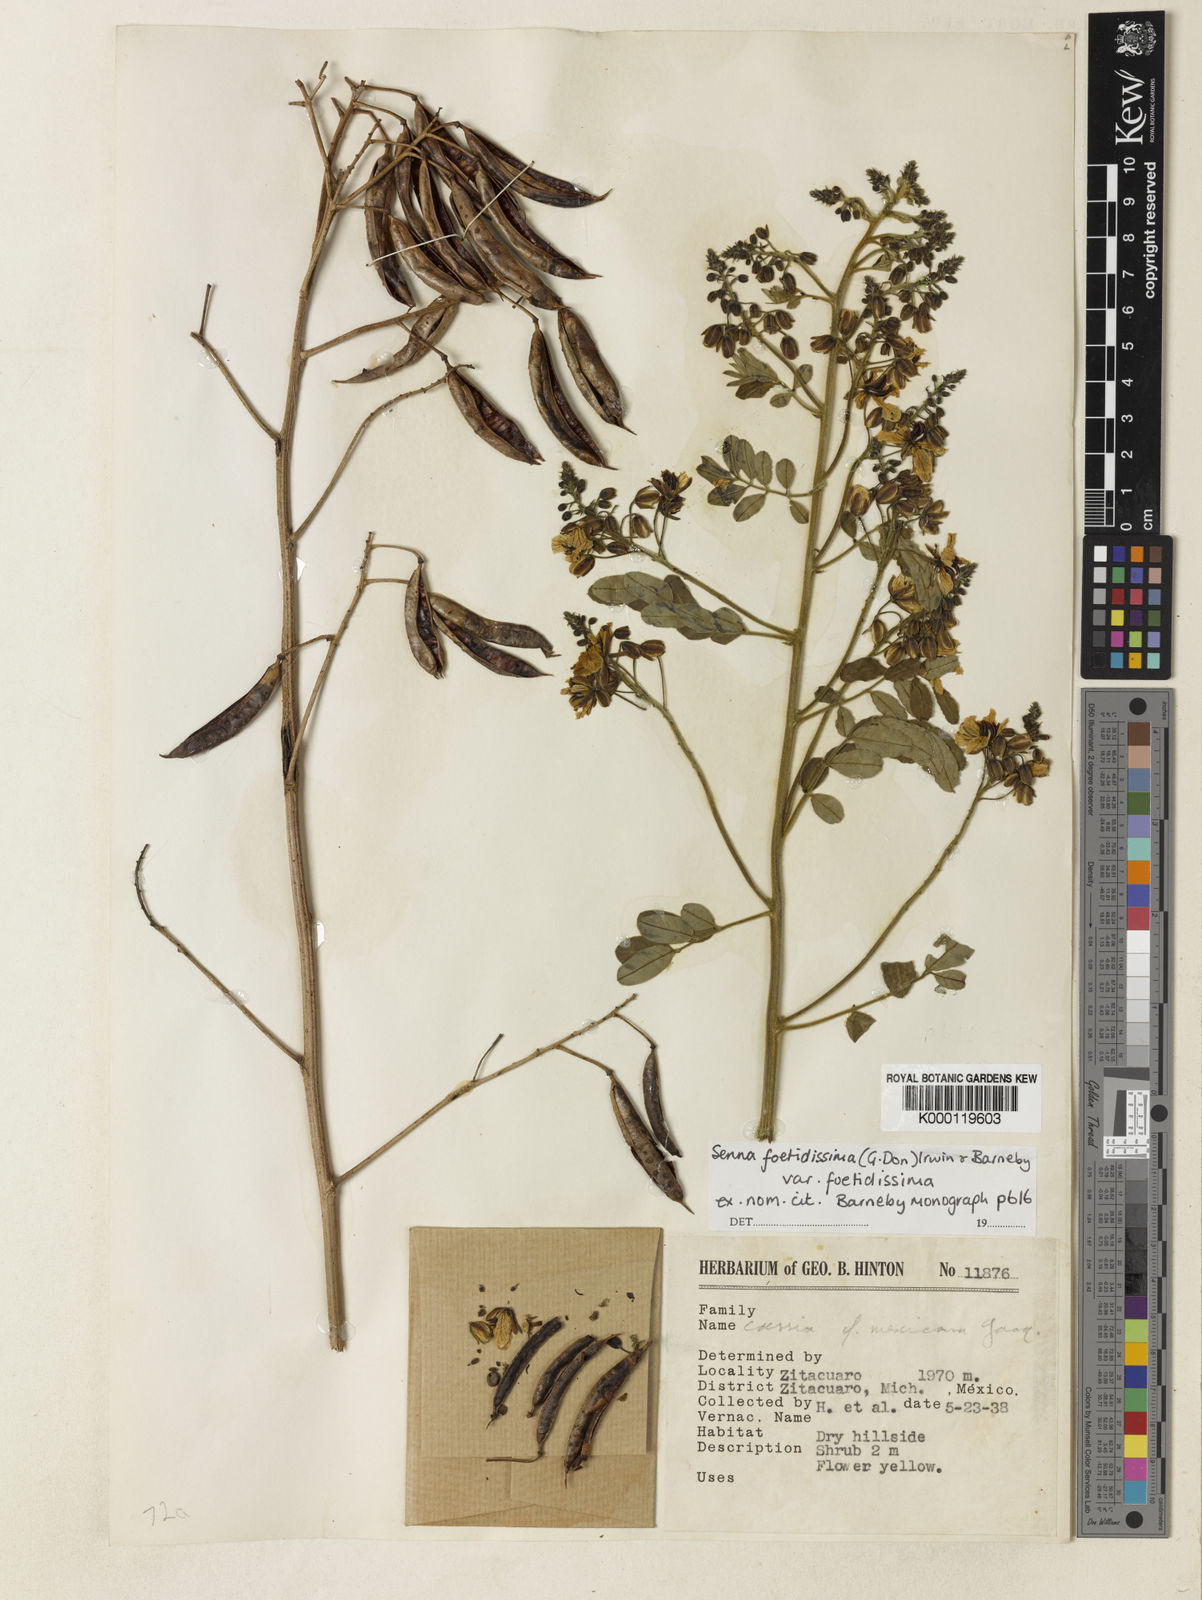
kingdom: Plantae
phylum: Tracheophyta
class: Magnoliopsida
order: Fabales
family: Fabaceae
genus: Senna
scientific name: Senna foetidissima
